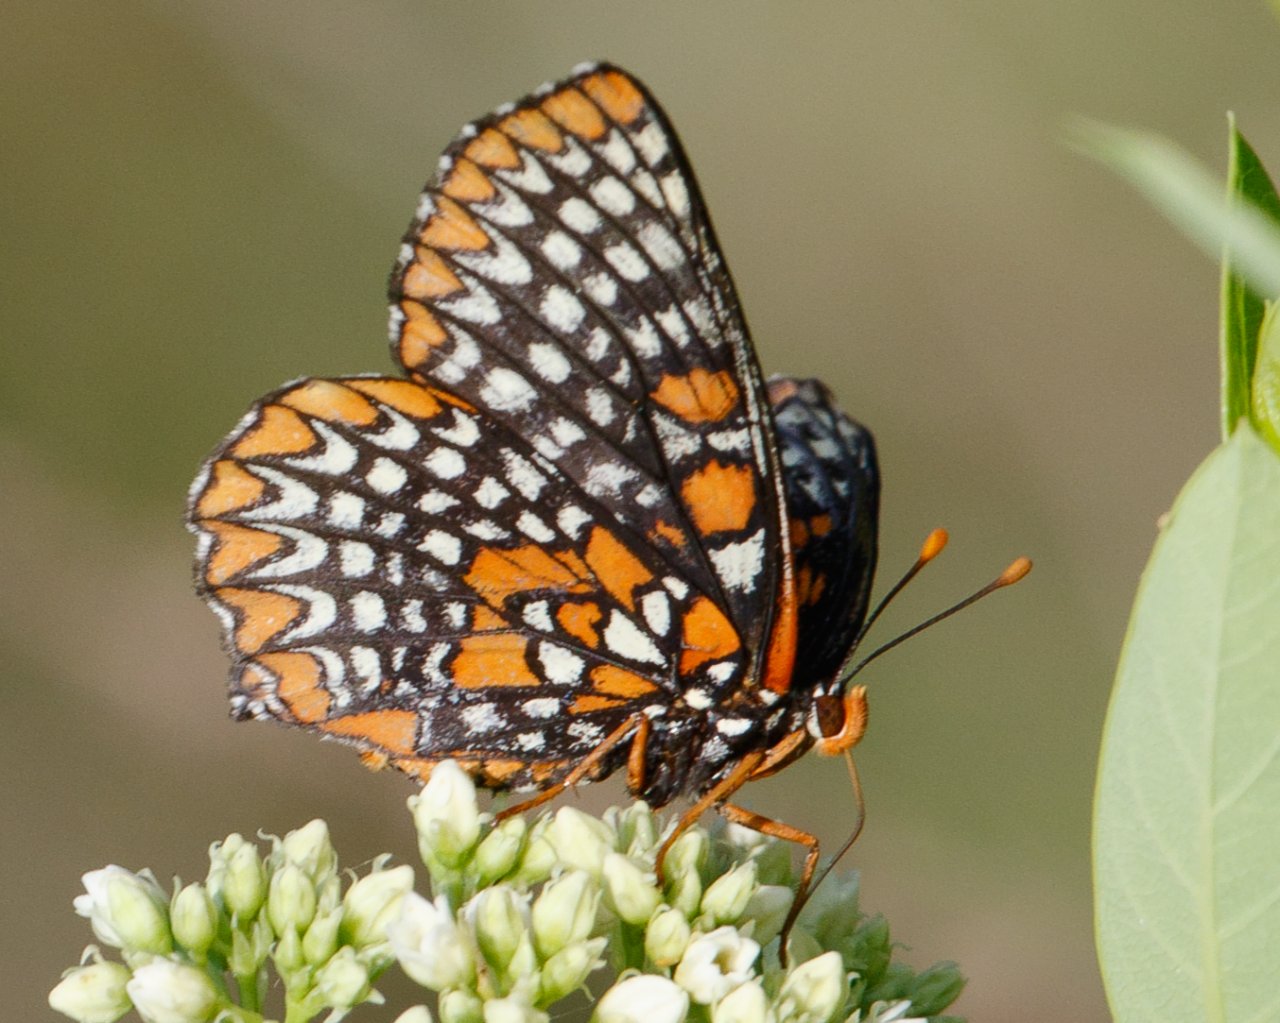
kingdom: Animalia
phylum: Arthropoda
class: Insecta
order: Lepidoptera
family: Nymphalidae
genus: Euphydryas
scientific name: Euphydryas phaeton
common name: Baltimore Checkerspot
